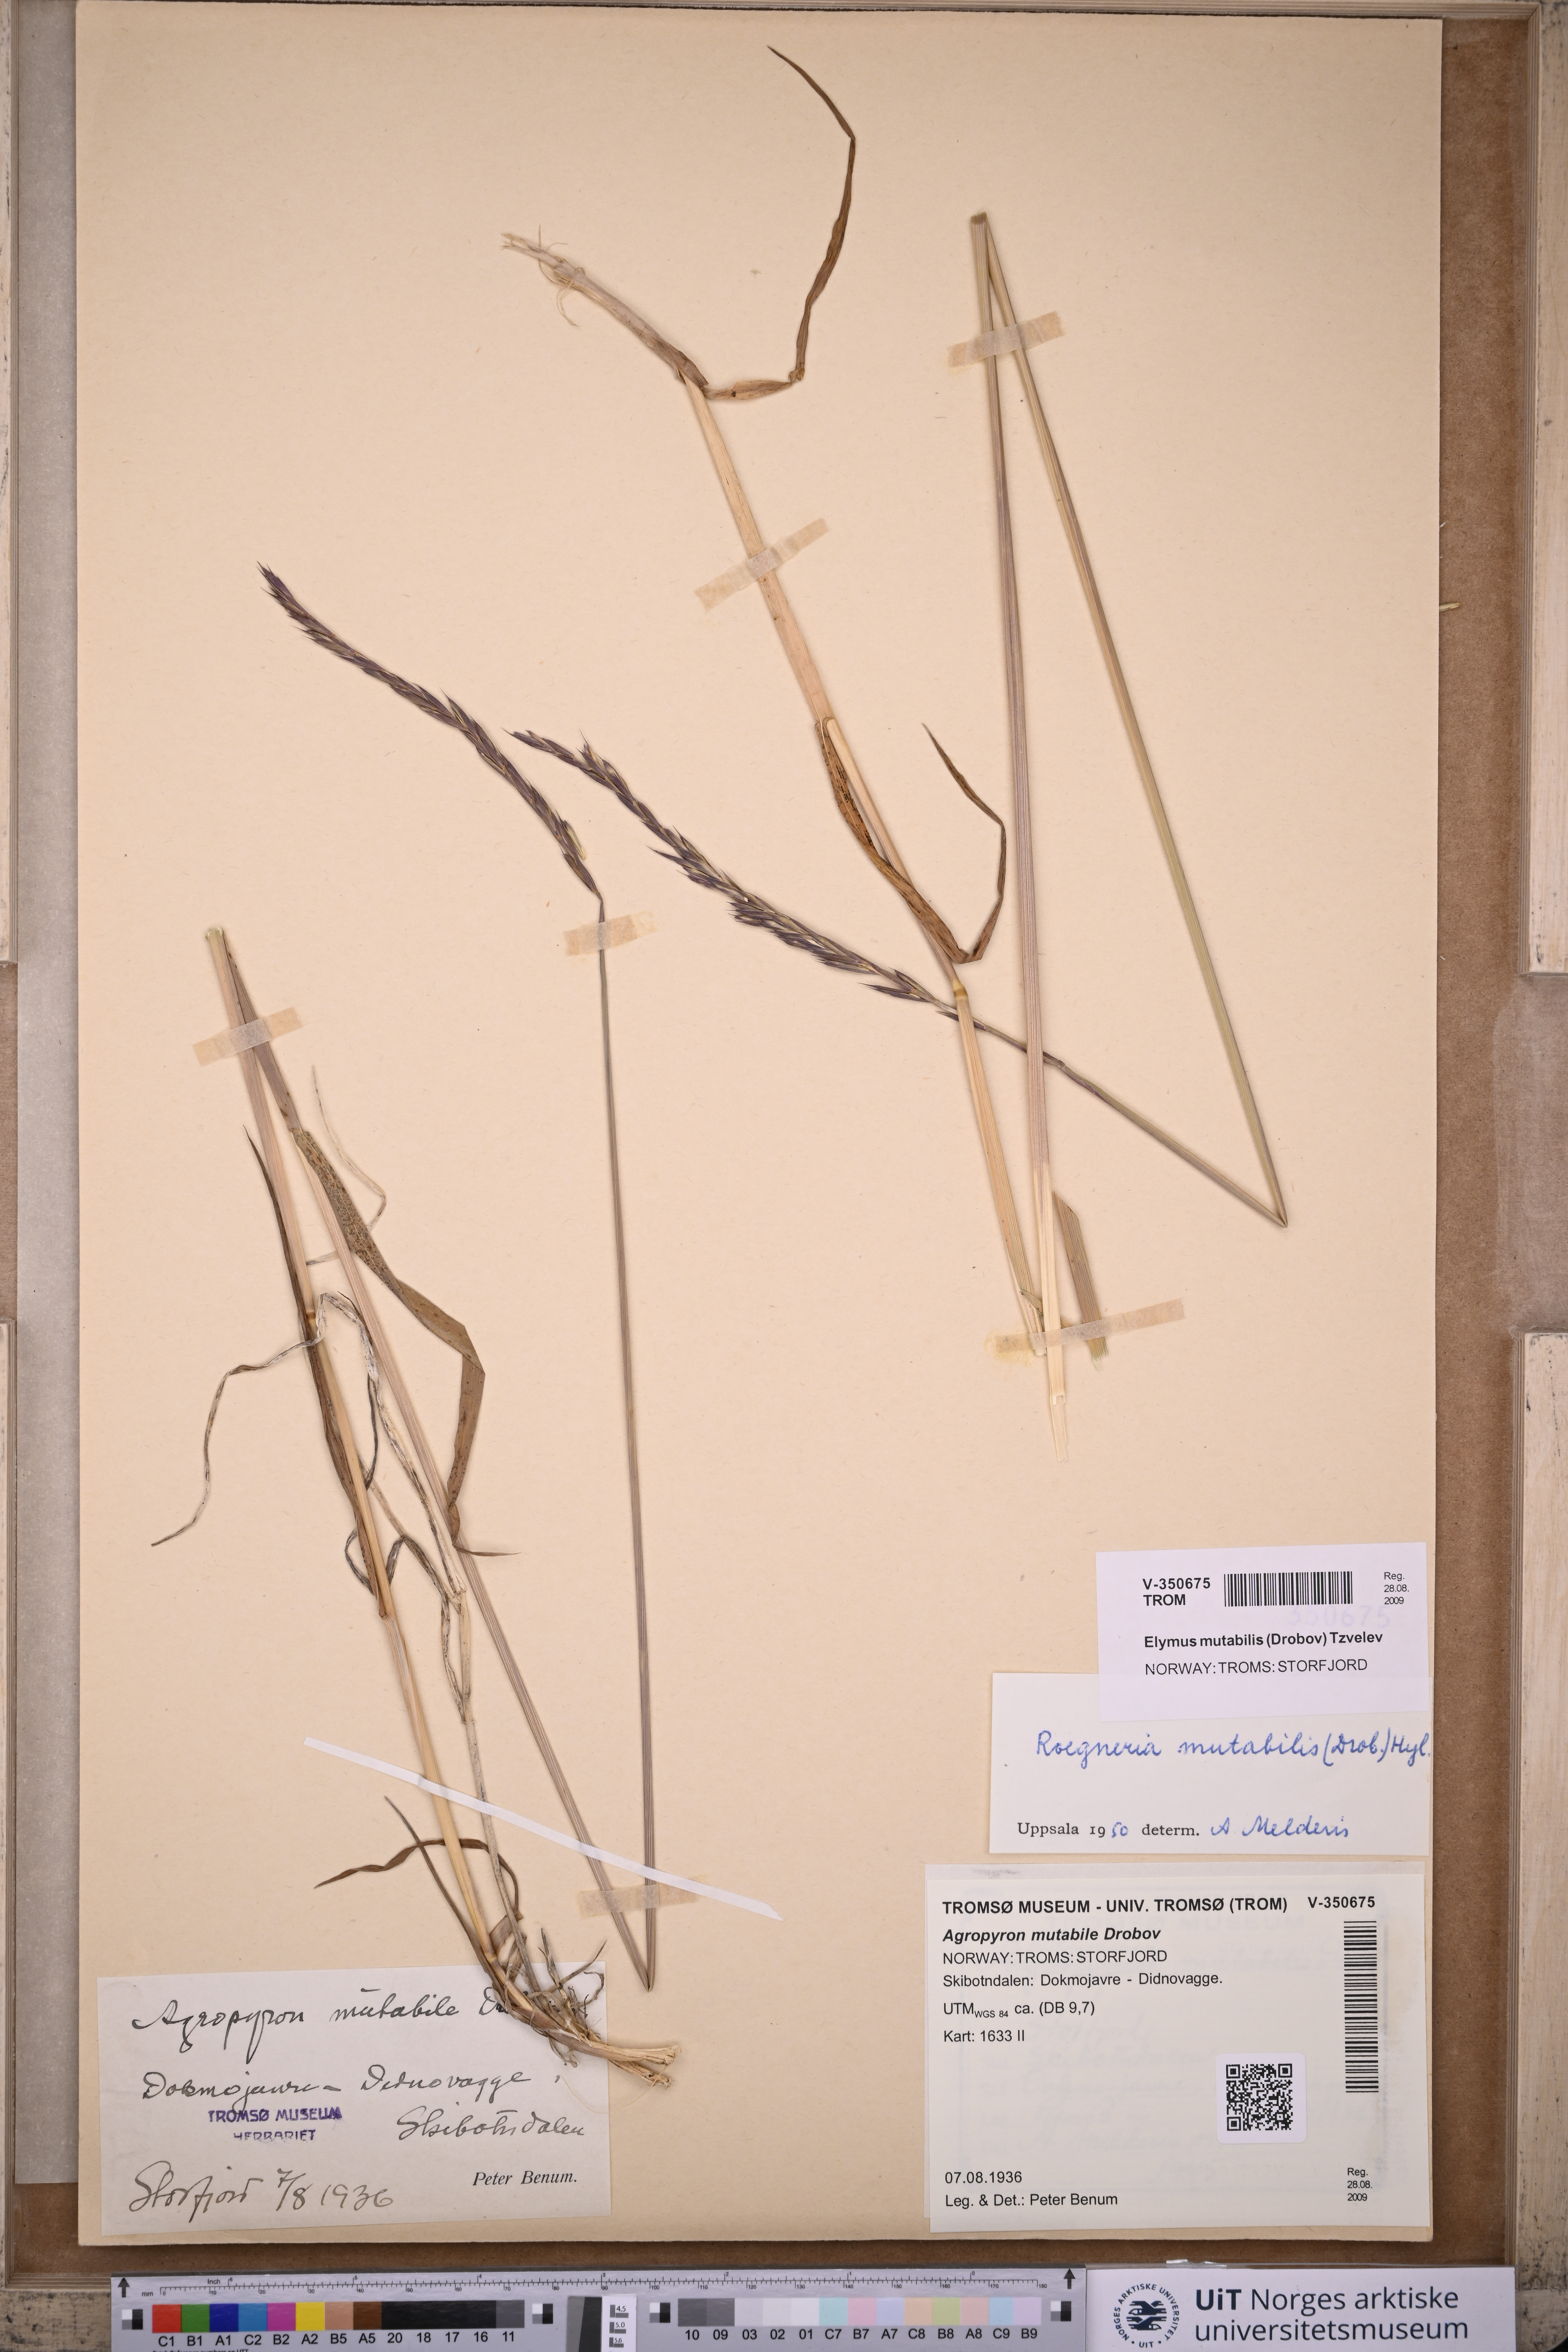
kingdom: Plantae
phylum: Tracheophyta
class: Liliopsida
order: Poales
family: Poaceae
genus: Elymus
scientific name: Elymus mutabilis
